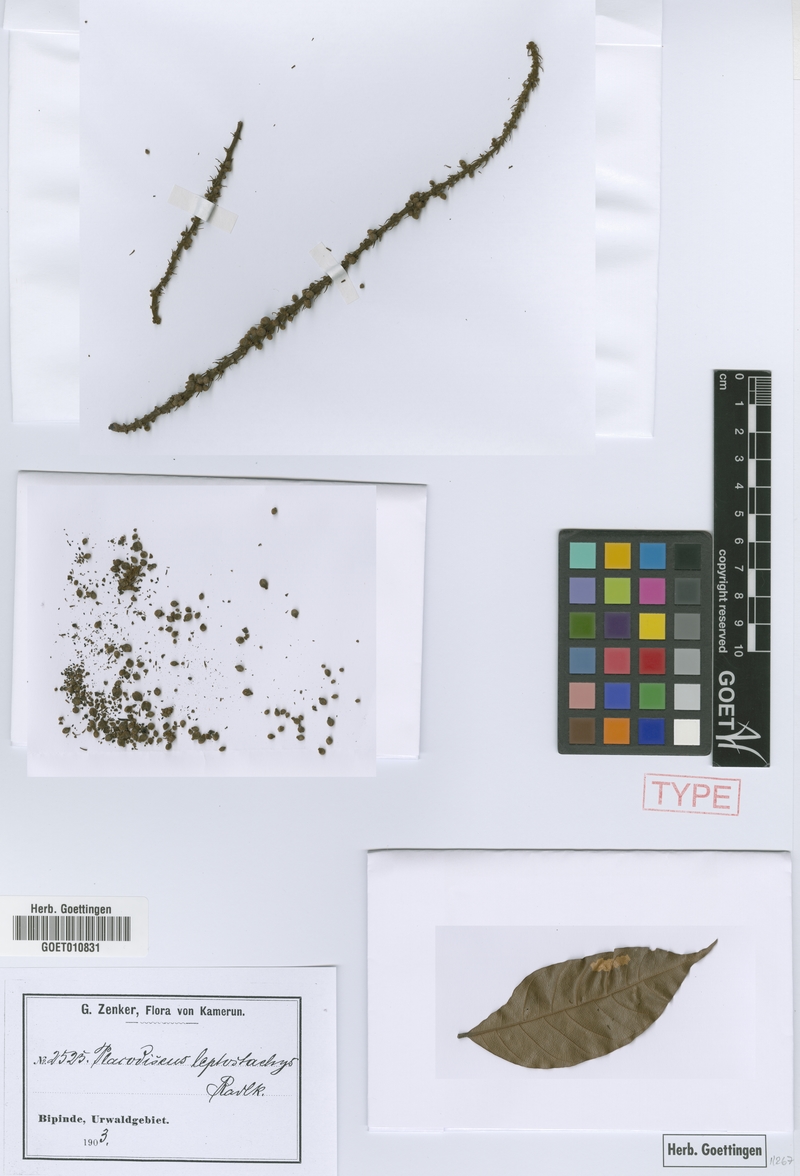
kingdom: Plantae
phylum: Tracheophyta
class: Magnoliopsida
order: Sapindales
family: Sapindaceae
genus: Placodiscus
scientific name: Placodiscus glandulosus
